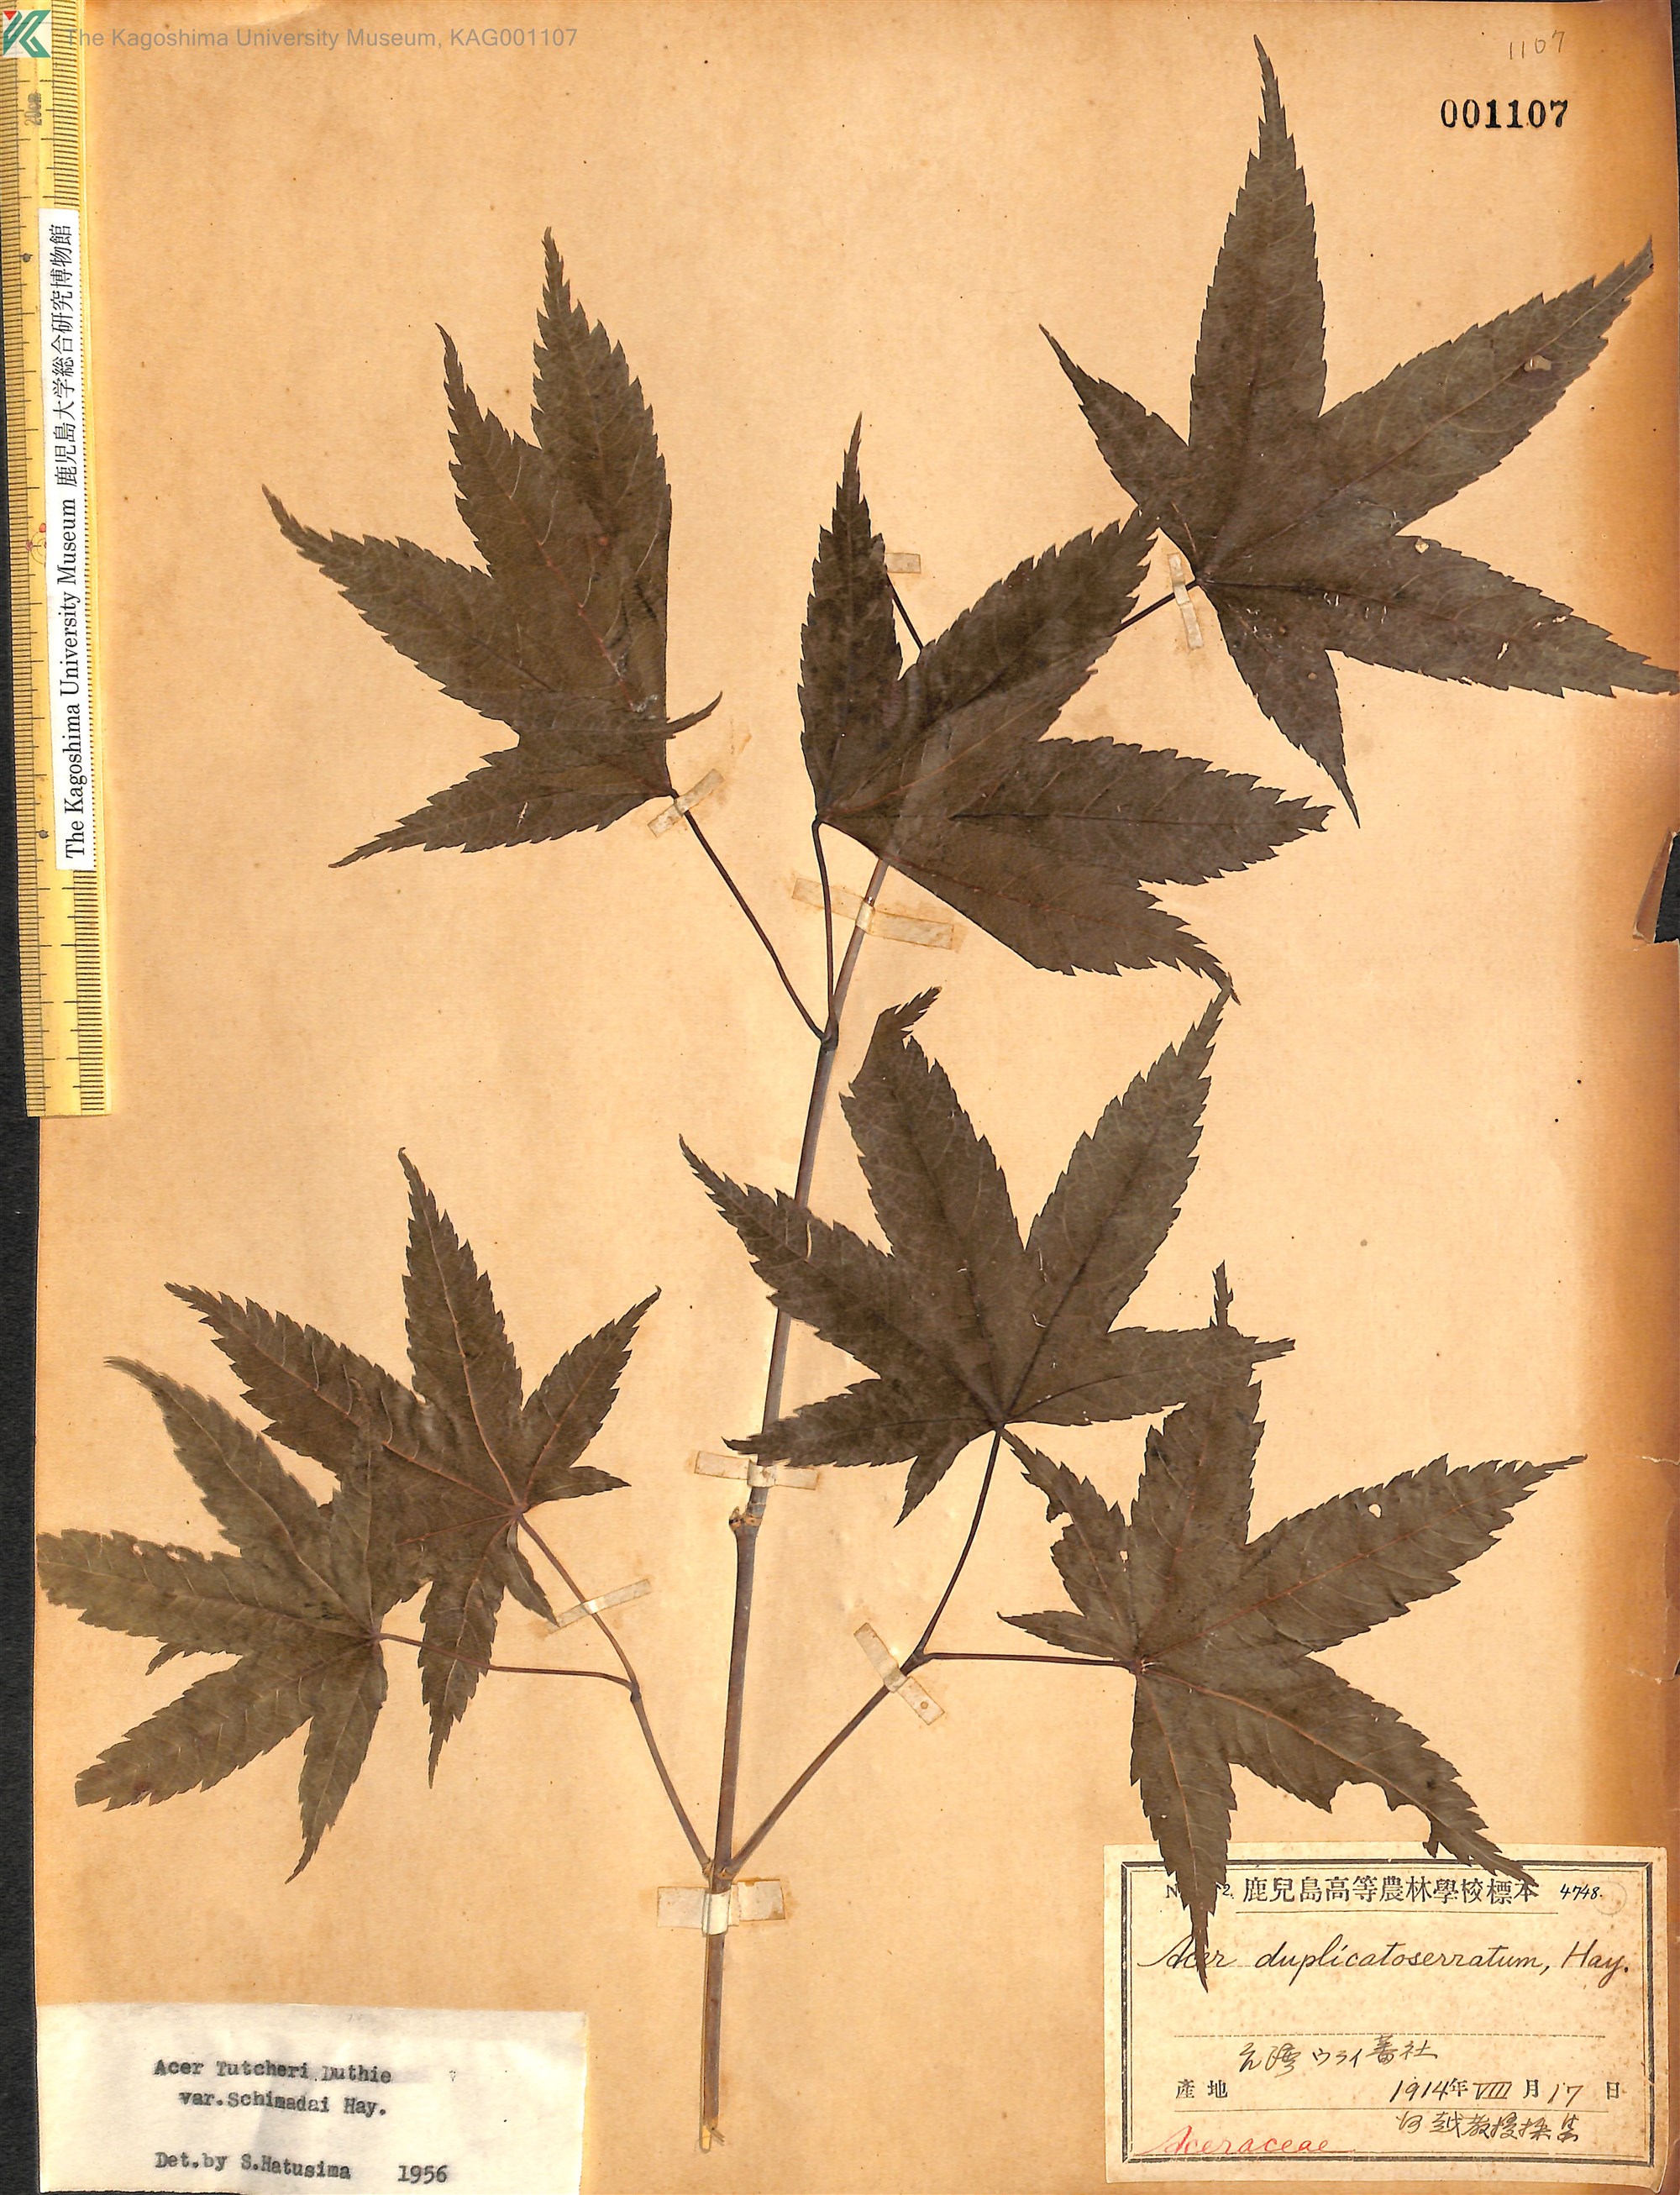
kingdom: Plantae
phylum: Tracheophyta
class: Magnoliopsida
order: Sapindales
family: Sapindaceae
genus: Acer
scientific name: Acer tutcheri
